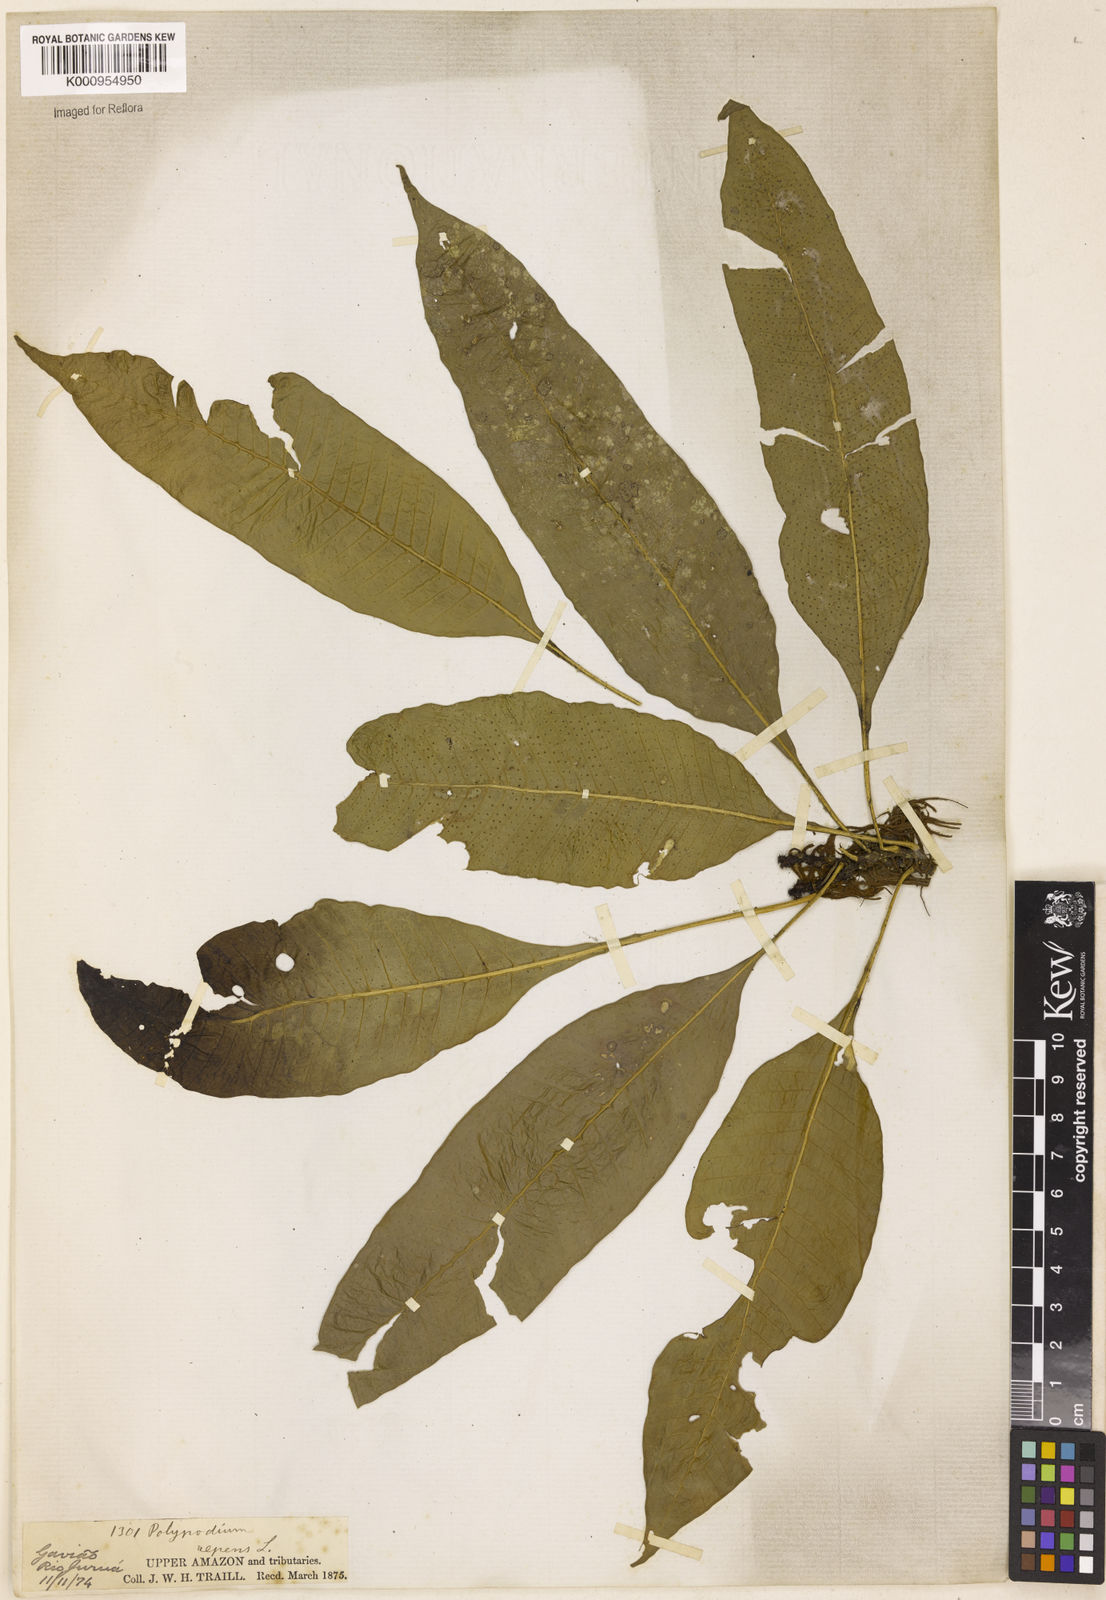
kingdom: Plantae
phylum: Tracheophyta
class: Polypodiopsida
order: Polypodiales
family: Polypodiaceae
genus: Campyloneurum
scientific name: Campyloneurum repens
